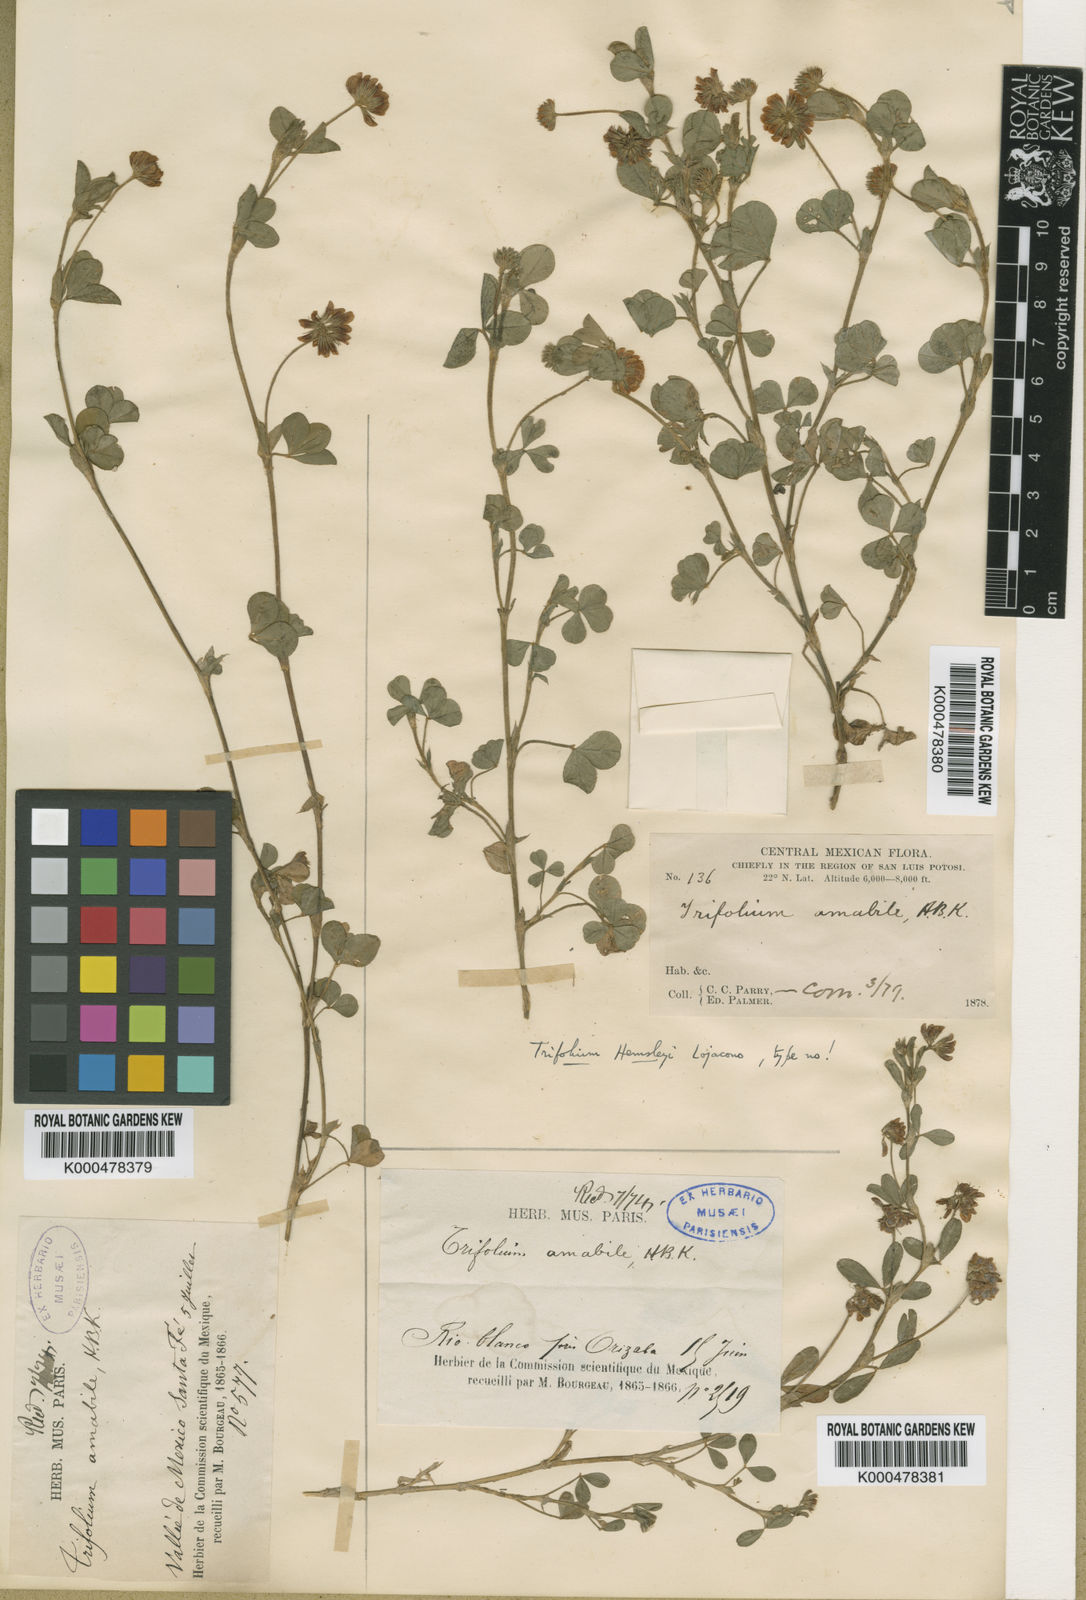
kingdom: Plantae
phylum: Tracheophyta
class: Magnoliopsida
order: Fabales
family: Fabaceae
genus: Trifolium
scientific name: Trifolium amabile
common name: Aztec clover
